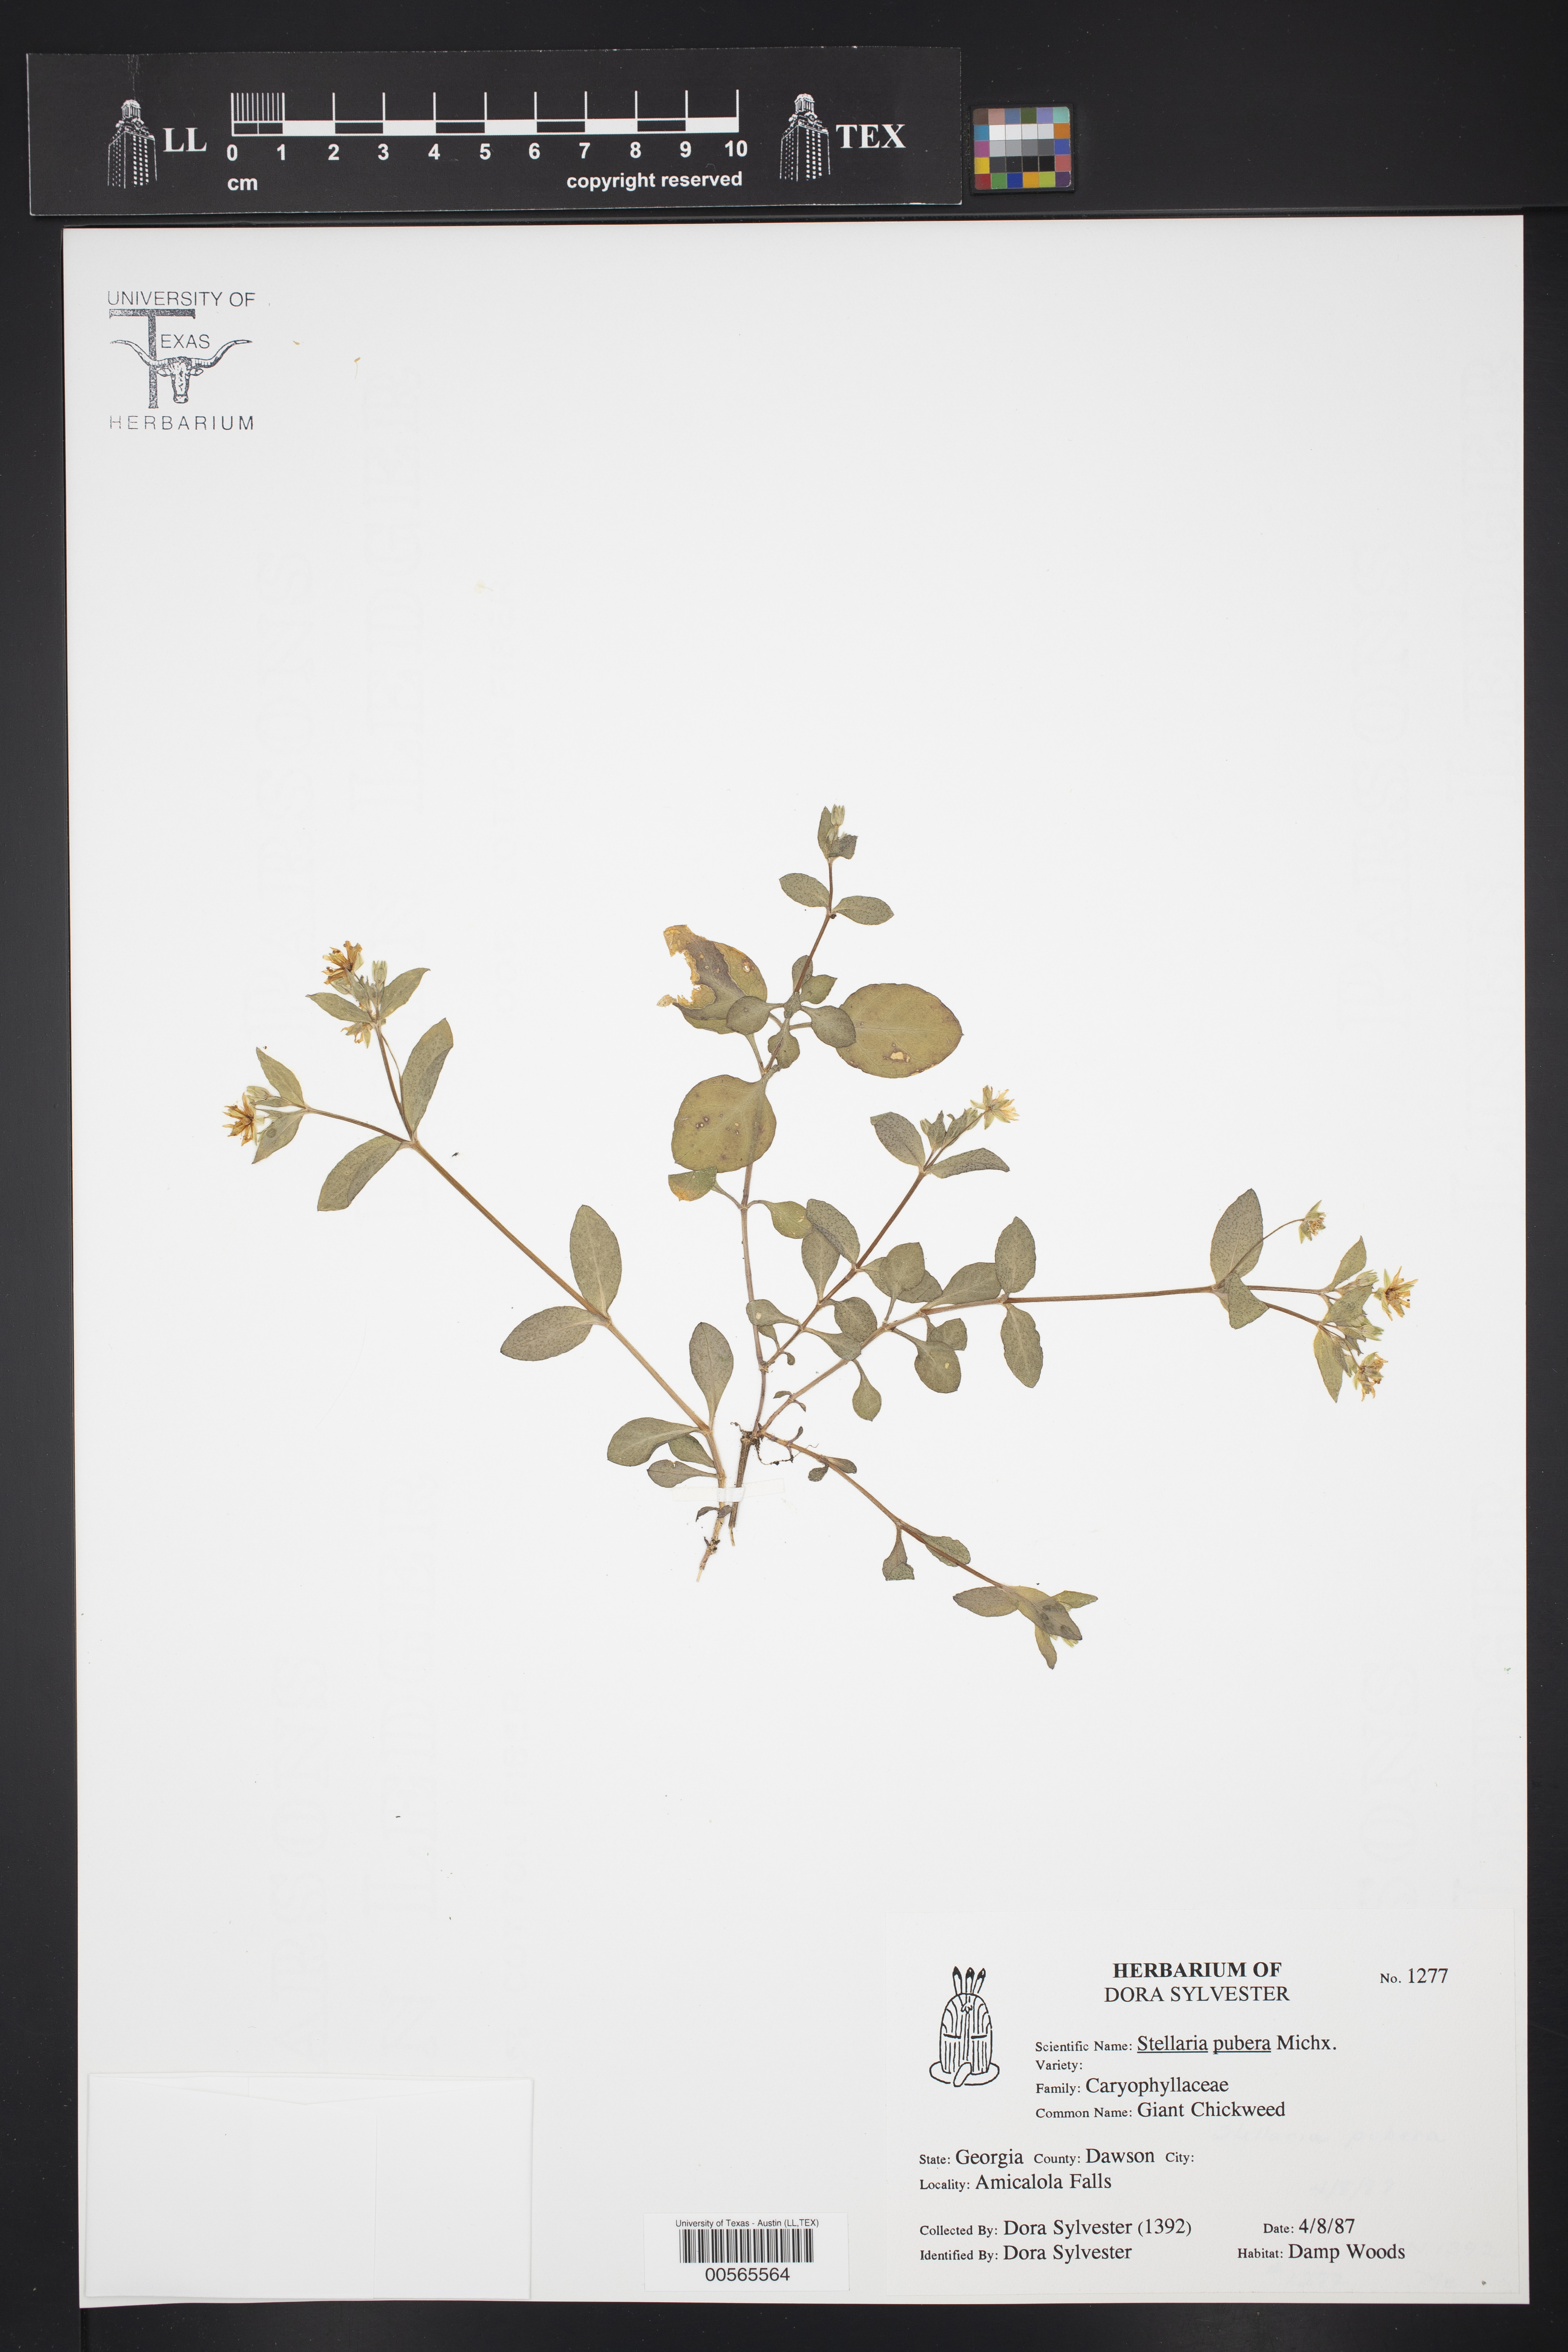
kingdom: Plantae
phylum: Tracheophyta
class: Magnoliopsida
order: Caryophyllales
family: Caryophyllaceae
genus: Stellaria
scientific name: Stellaria pubera
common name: Star chickweed
